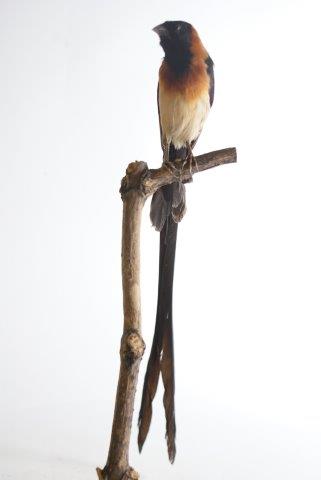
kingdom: Animalia
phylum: Chordata
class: Aves
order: Passeriformes
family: Viduidae
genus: Vidua
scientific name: Vidua
